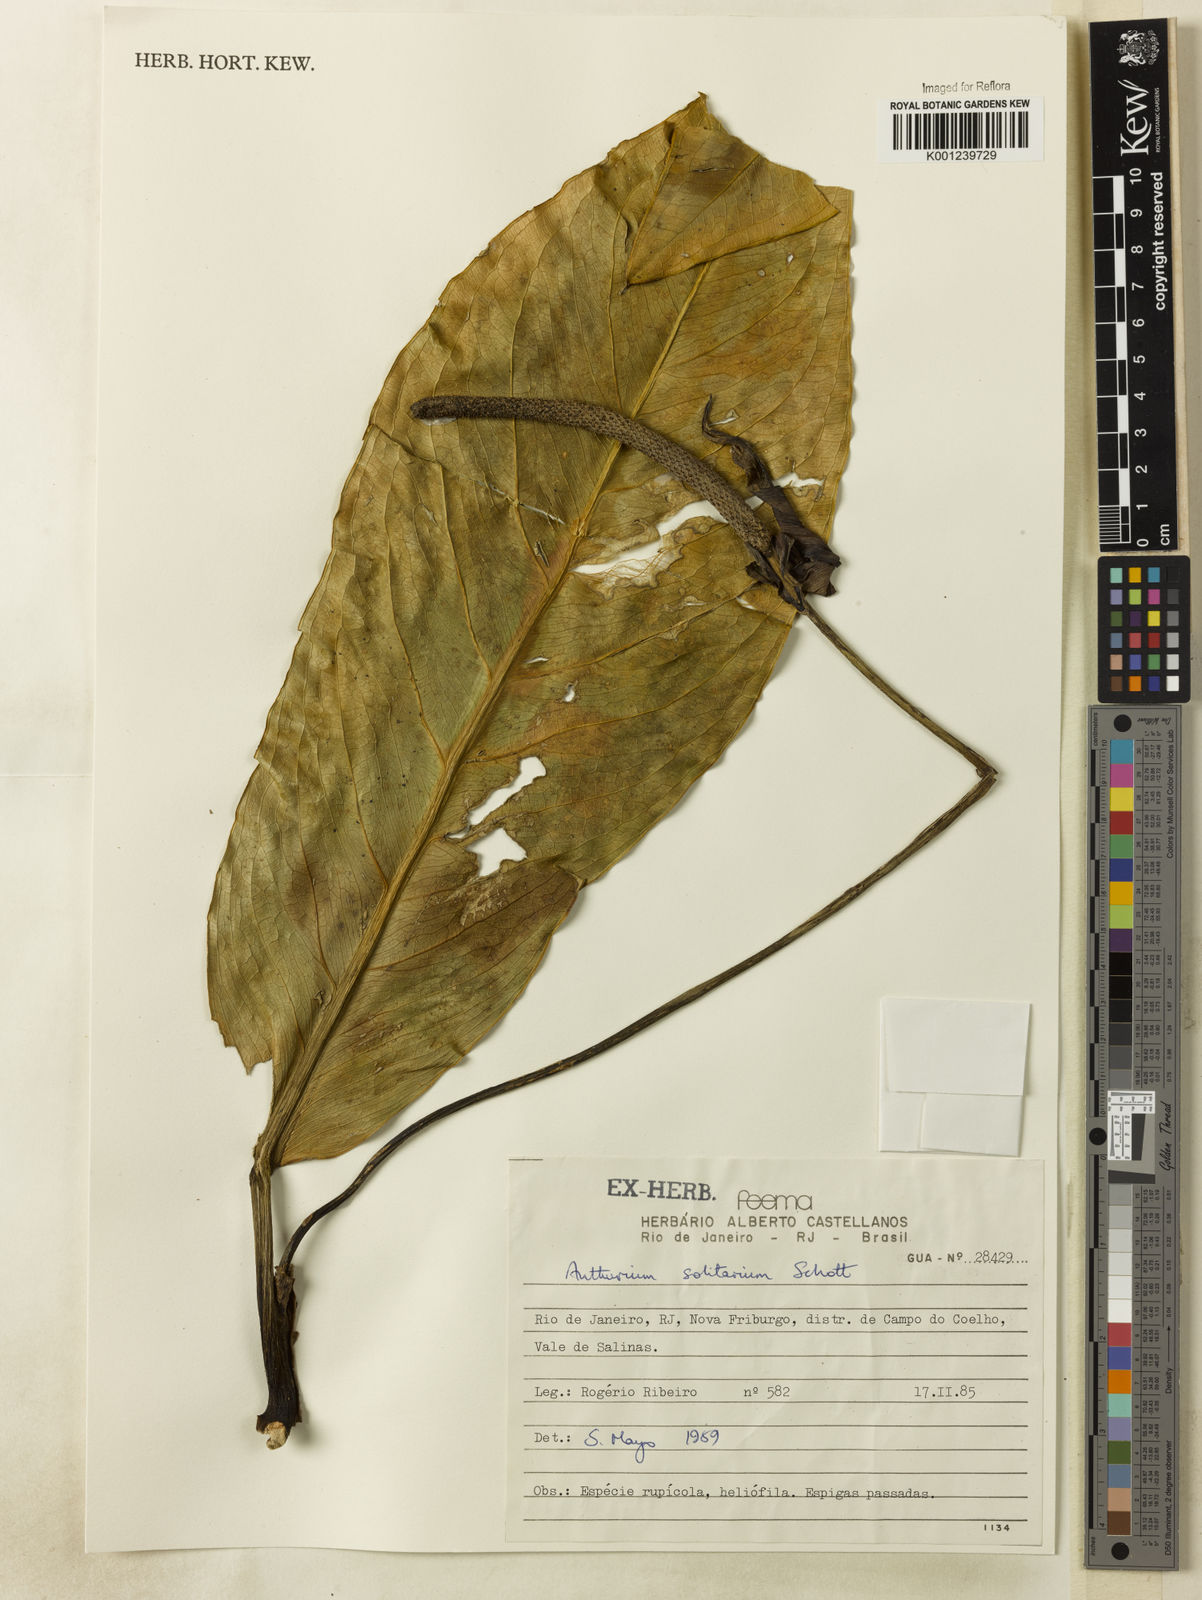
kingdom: Plantae
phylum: Tracheophyta
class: Liliopsida
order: Alismatales
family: Araceae
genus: Anthurium
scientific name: Anthurium solitarium
